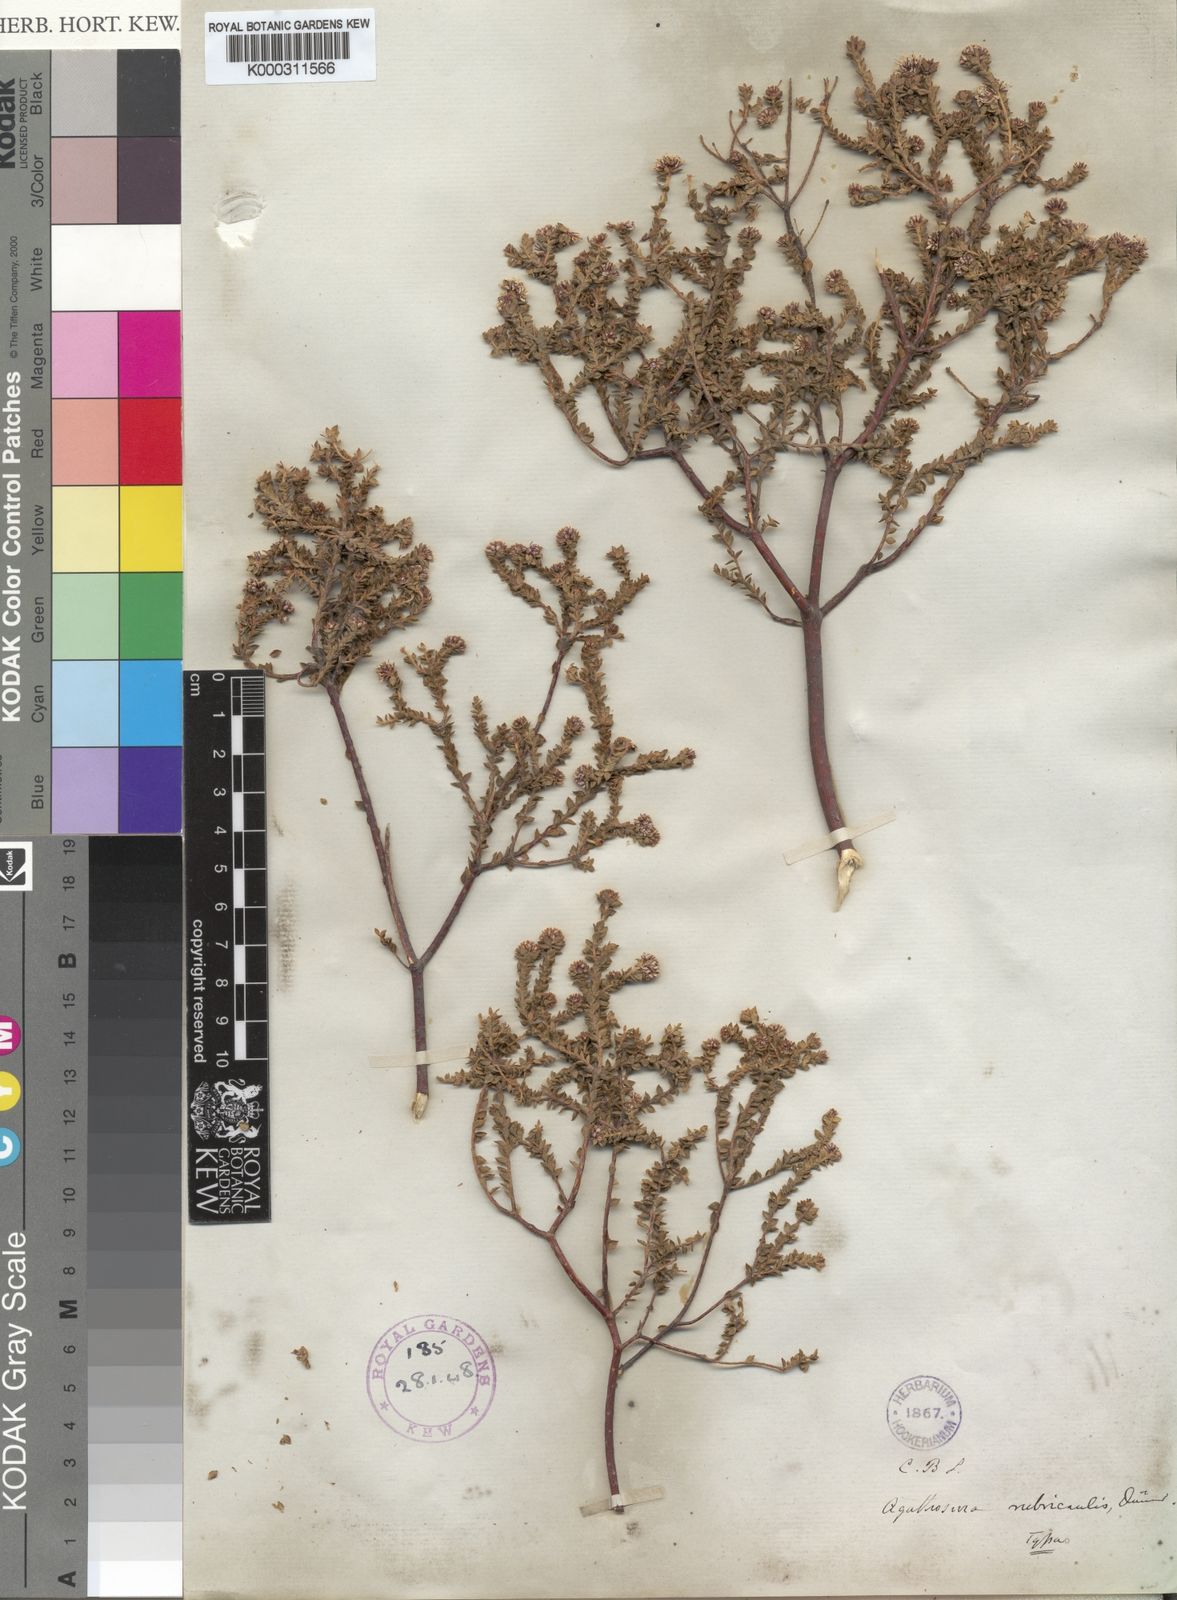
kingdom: Plantae
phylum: Tracheophyta
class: Magnoliopsida
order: Sapindales
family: Rutaceae
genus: Agathosma
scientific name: Agathosma
